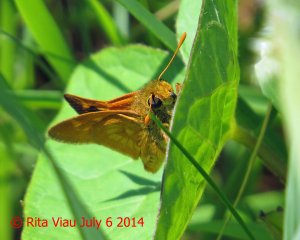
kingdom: Animalia
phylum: Arthropoda
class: Insecta
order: Lepidoptera
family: Hesperiidae
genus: Polites
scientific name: Polites
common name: Long Dash Skipper
